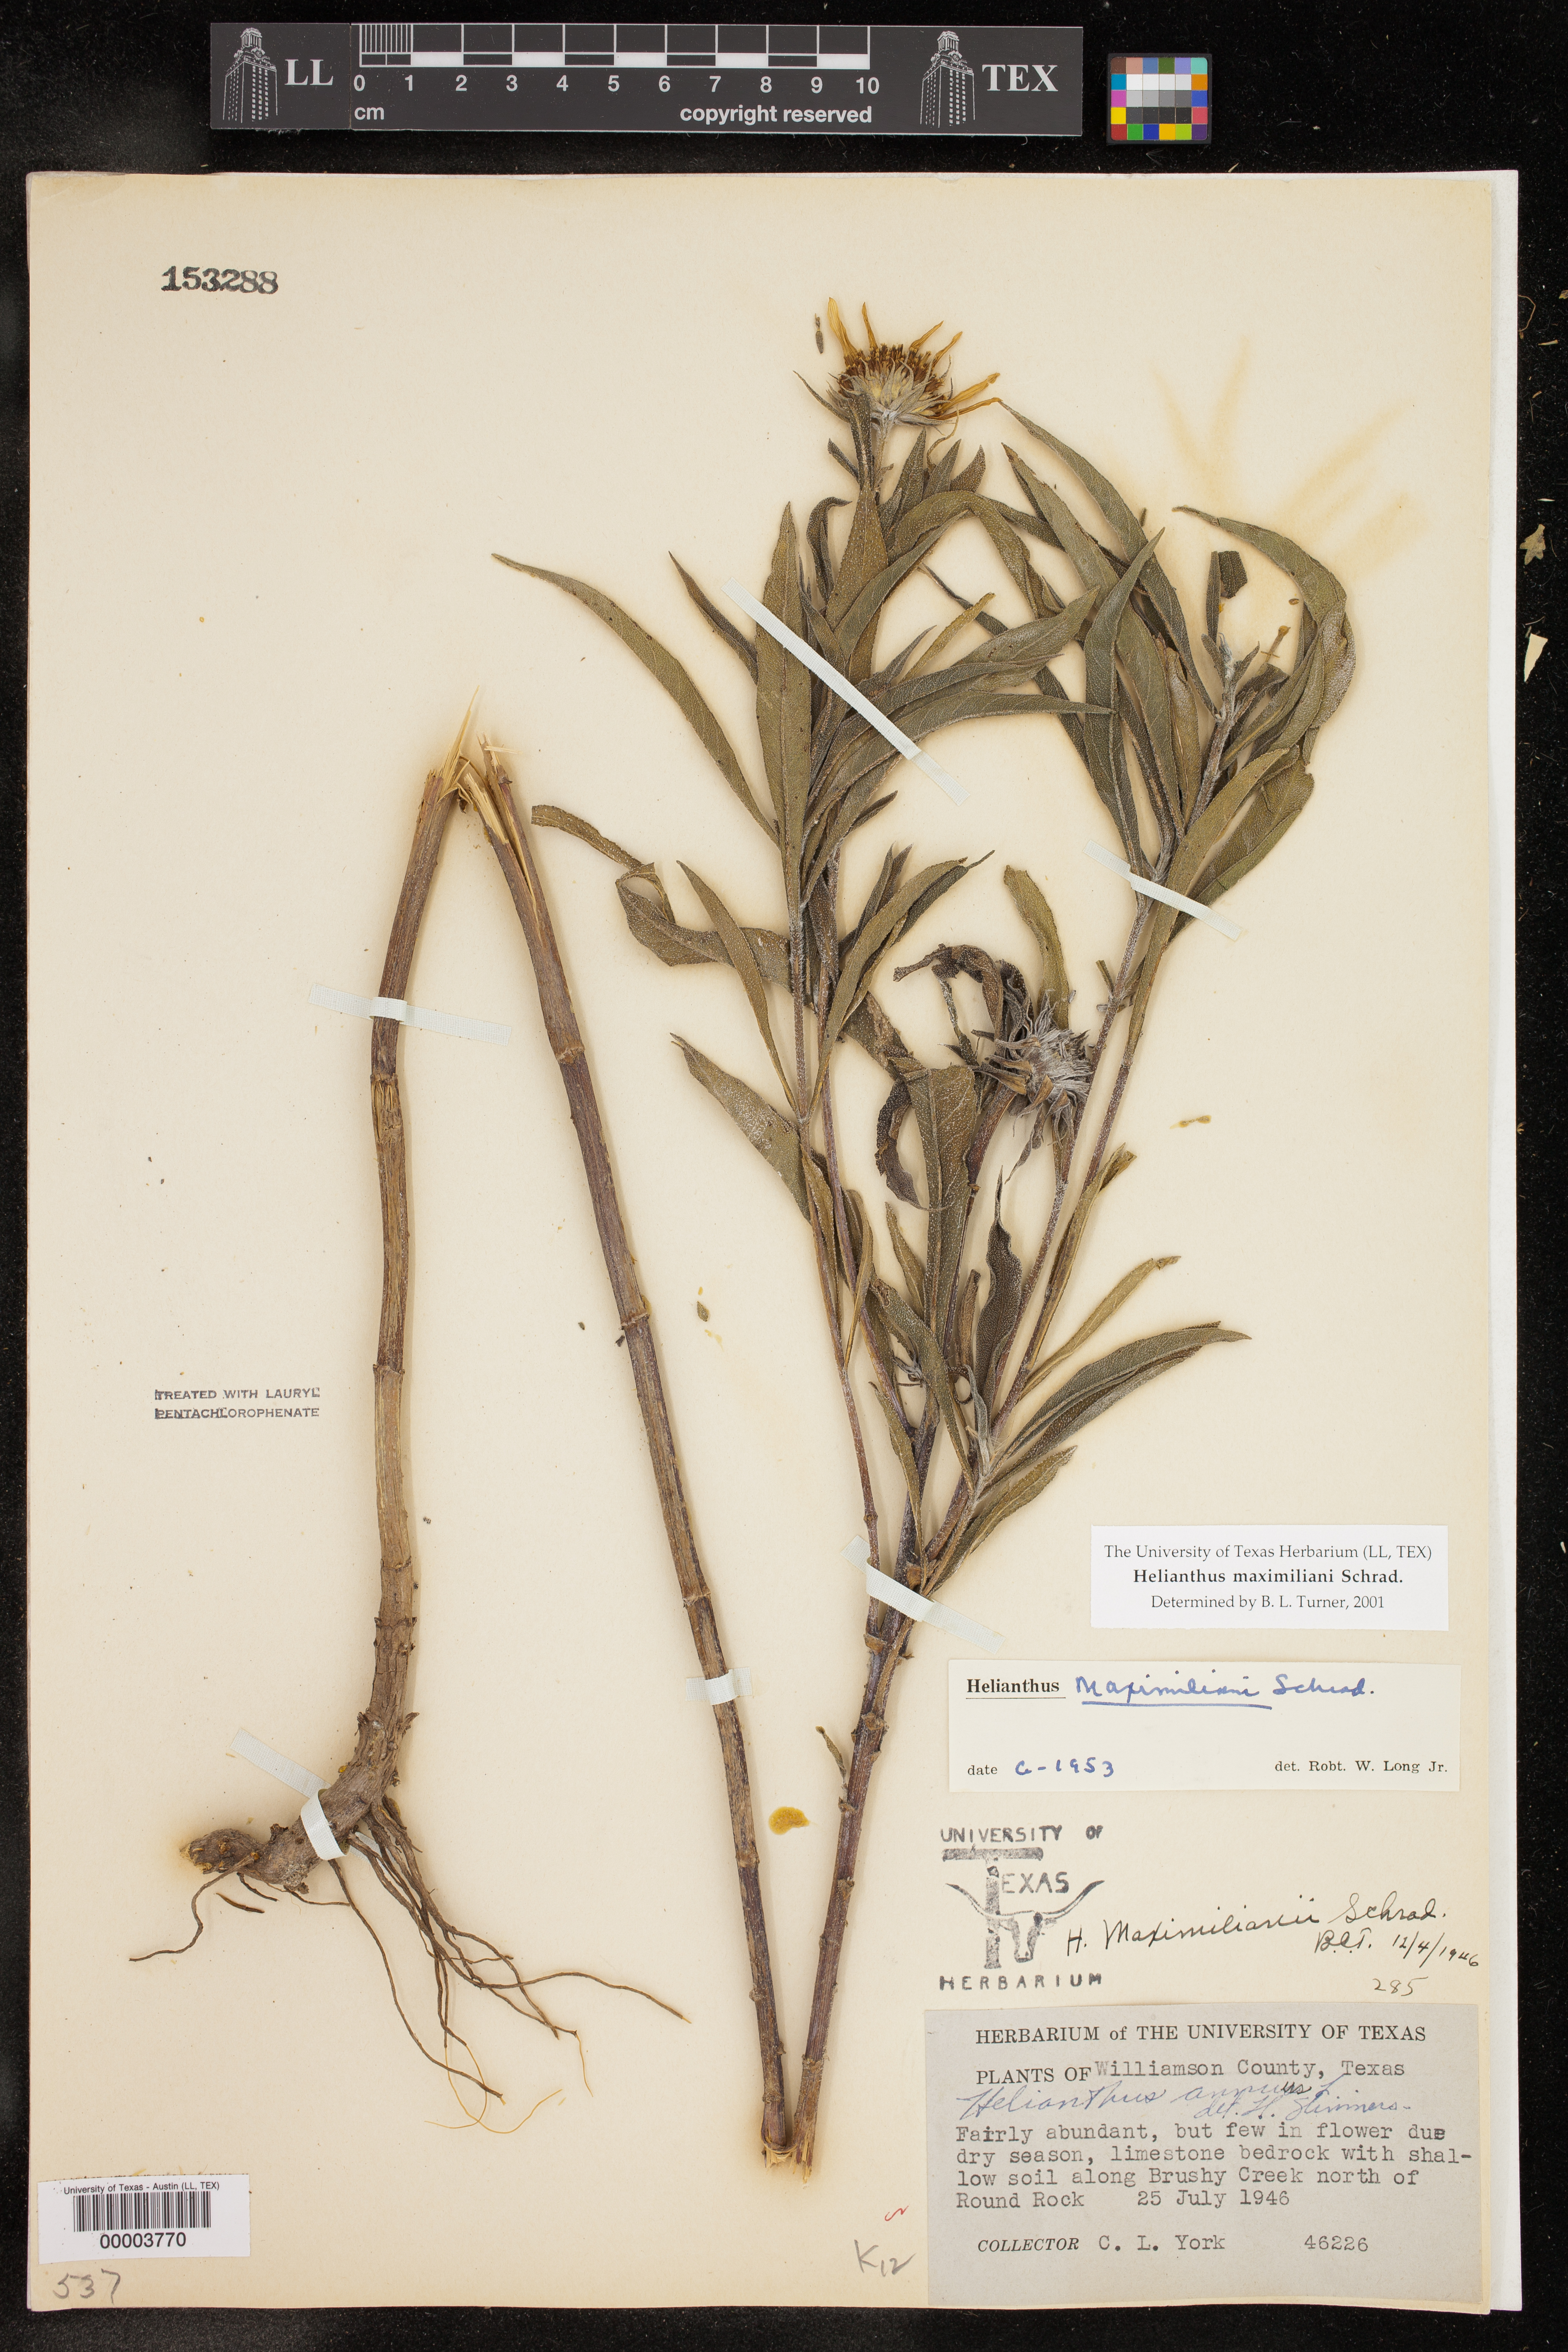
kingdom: Plantae
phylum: Tracheophyta
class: Magnoliopsida
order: Asterales
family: Asteraceae
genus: Helianthus
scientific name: Helianthus maximiliani
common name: Maximilian's sunflower
